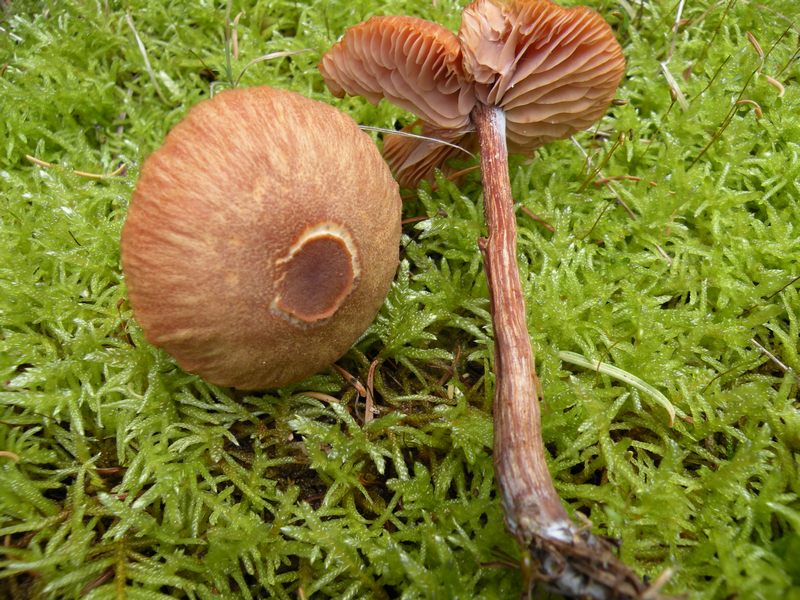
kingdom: Fungi
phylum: Basidiomycota
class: Agaricomycetes
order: Agaricales
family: Hydnangiaceae
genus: Laccaria
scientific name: Laccaria proxima
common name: stor ametysthat
